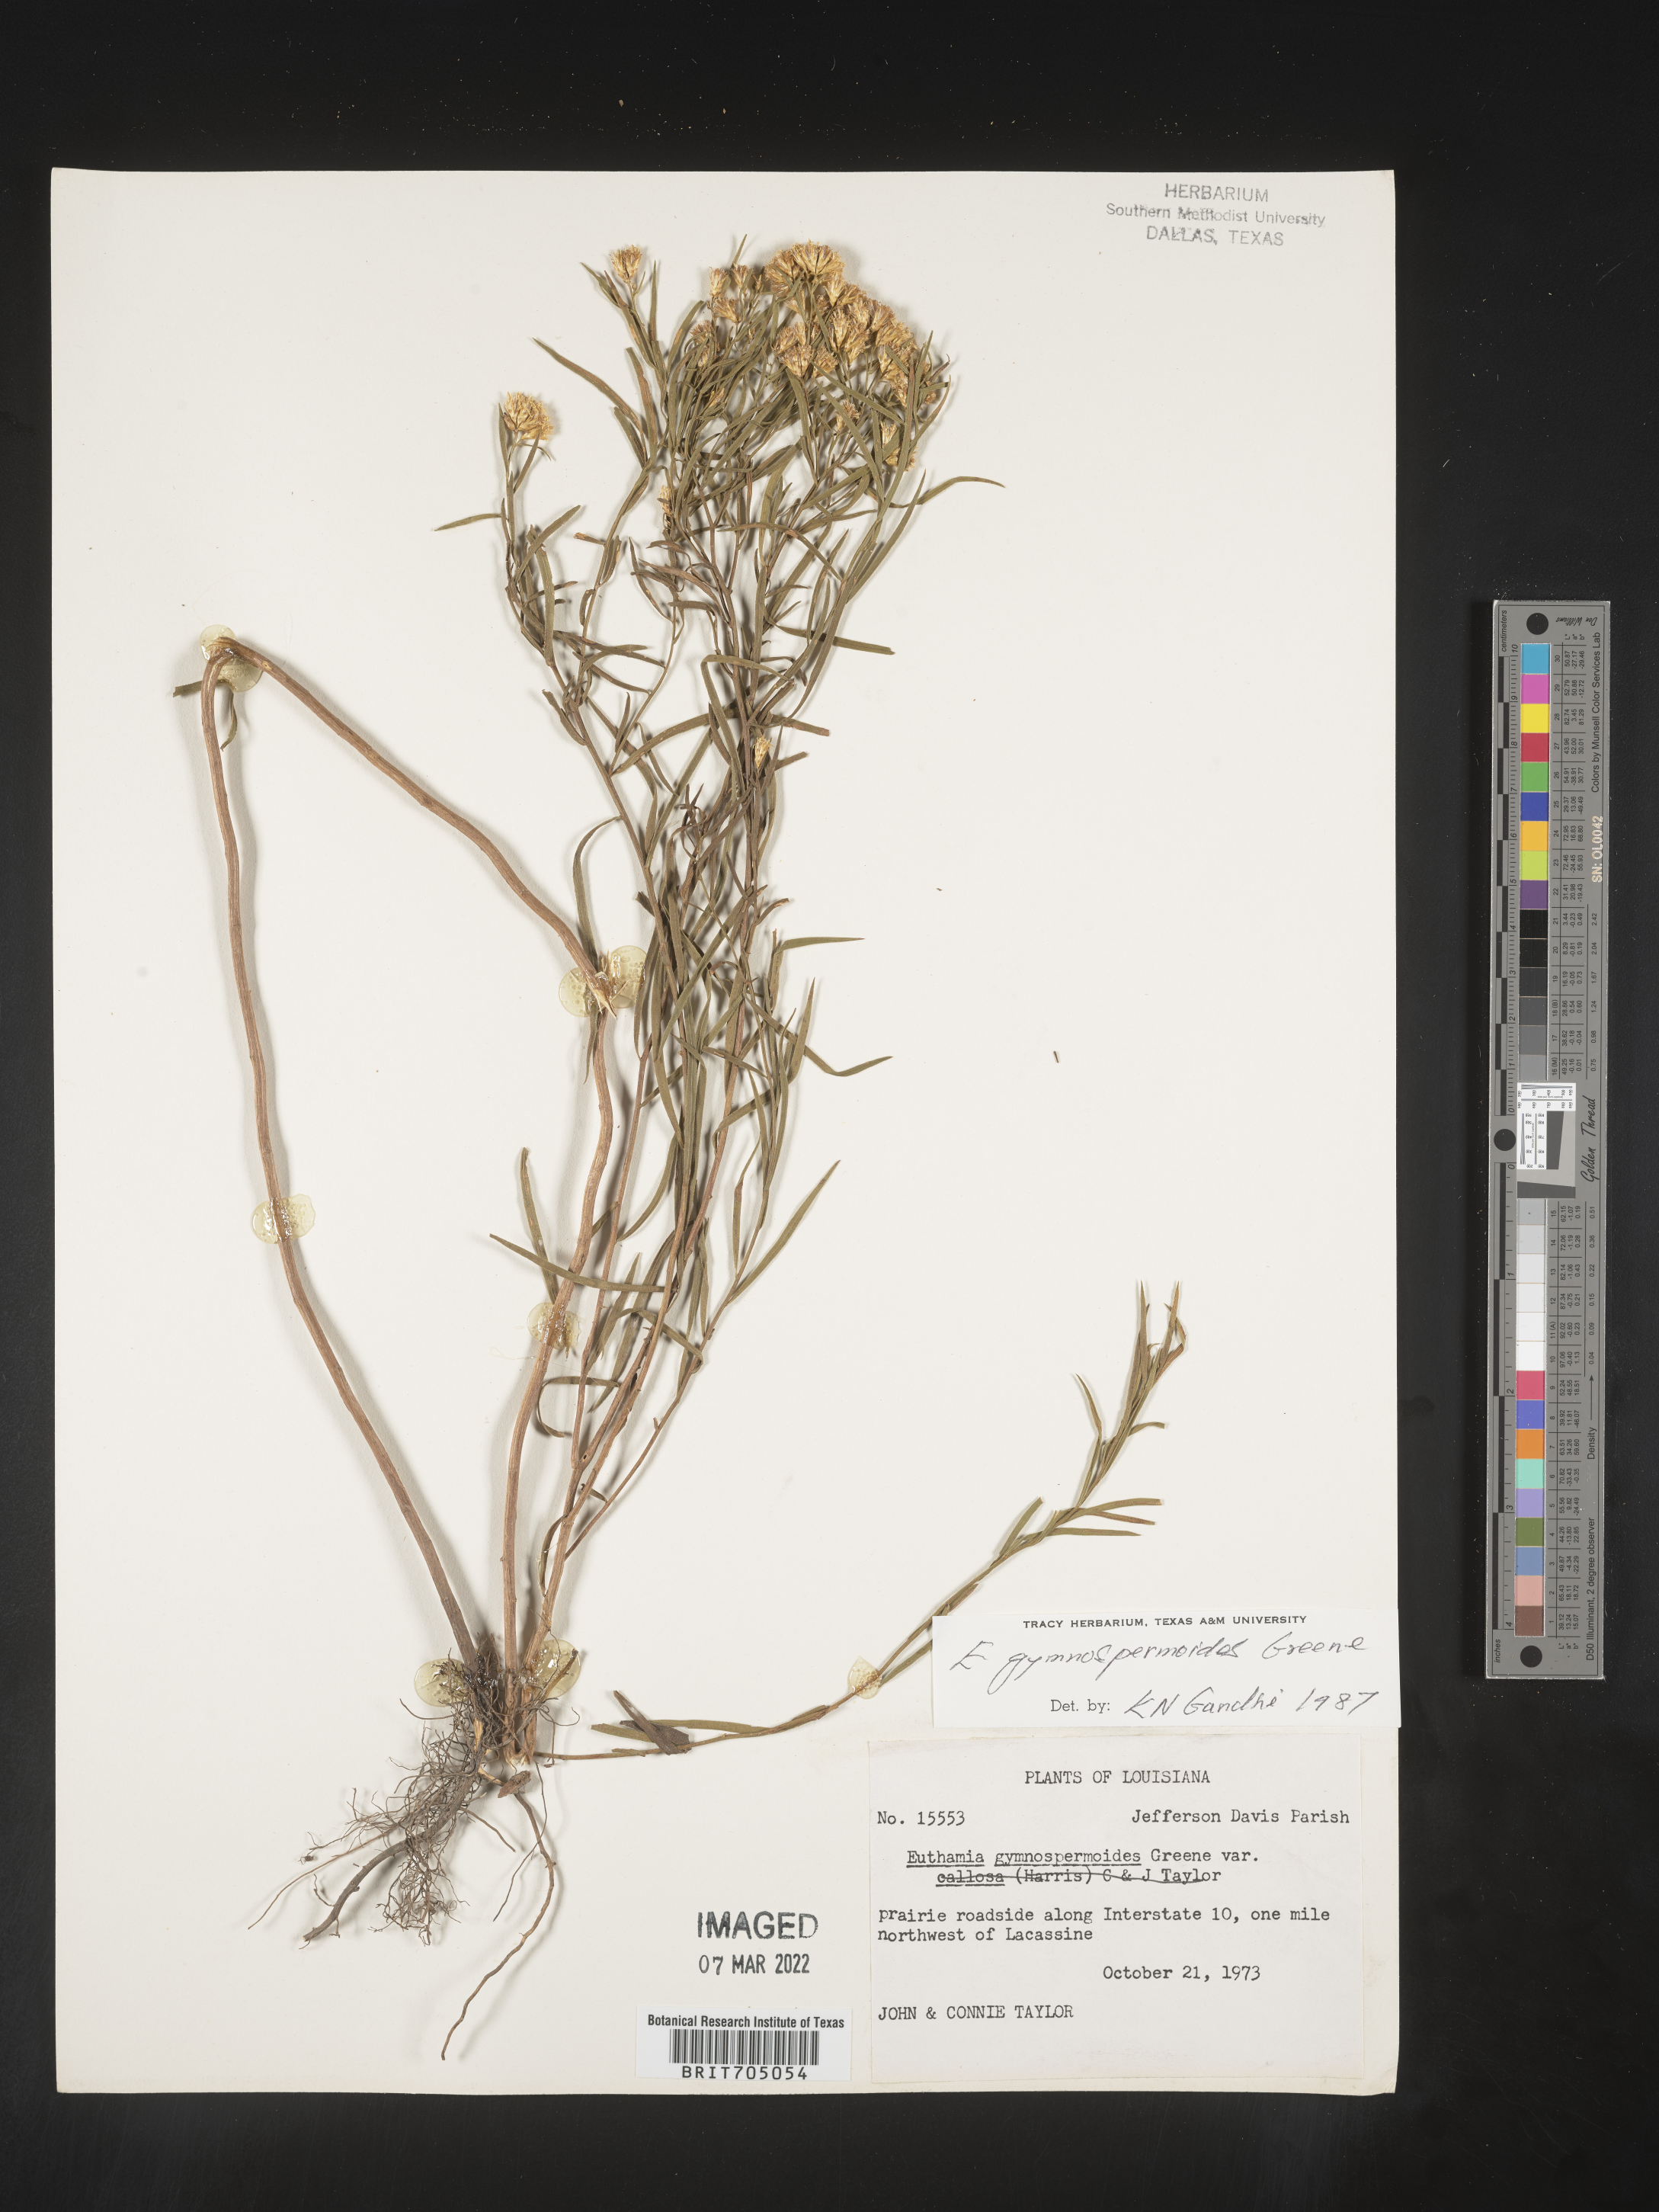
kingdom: Plantae
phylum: Tracheophyta
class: Magnoliopsida
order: Asterales
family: Asteraceae
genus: Euthamia
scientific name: Euthamia gymnospermoides
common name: Great plains goldentop
